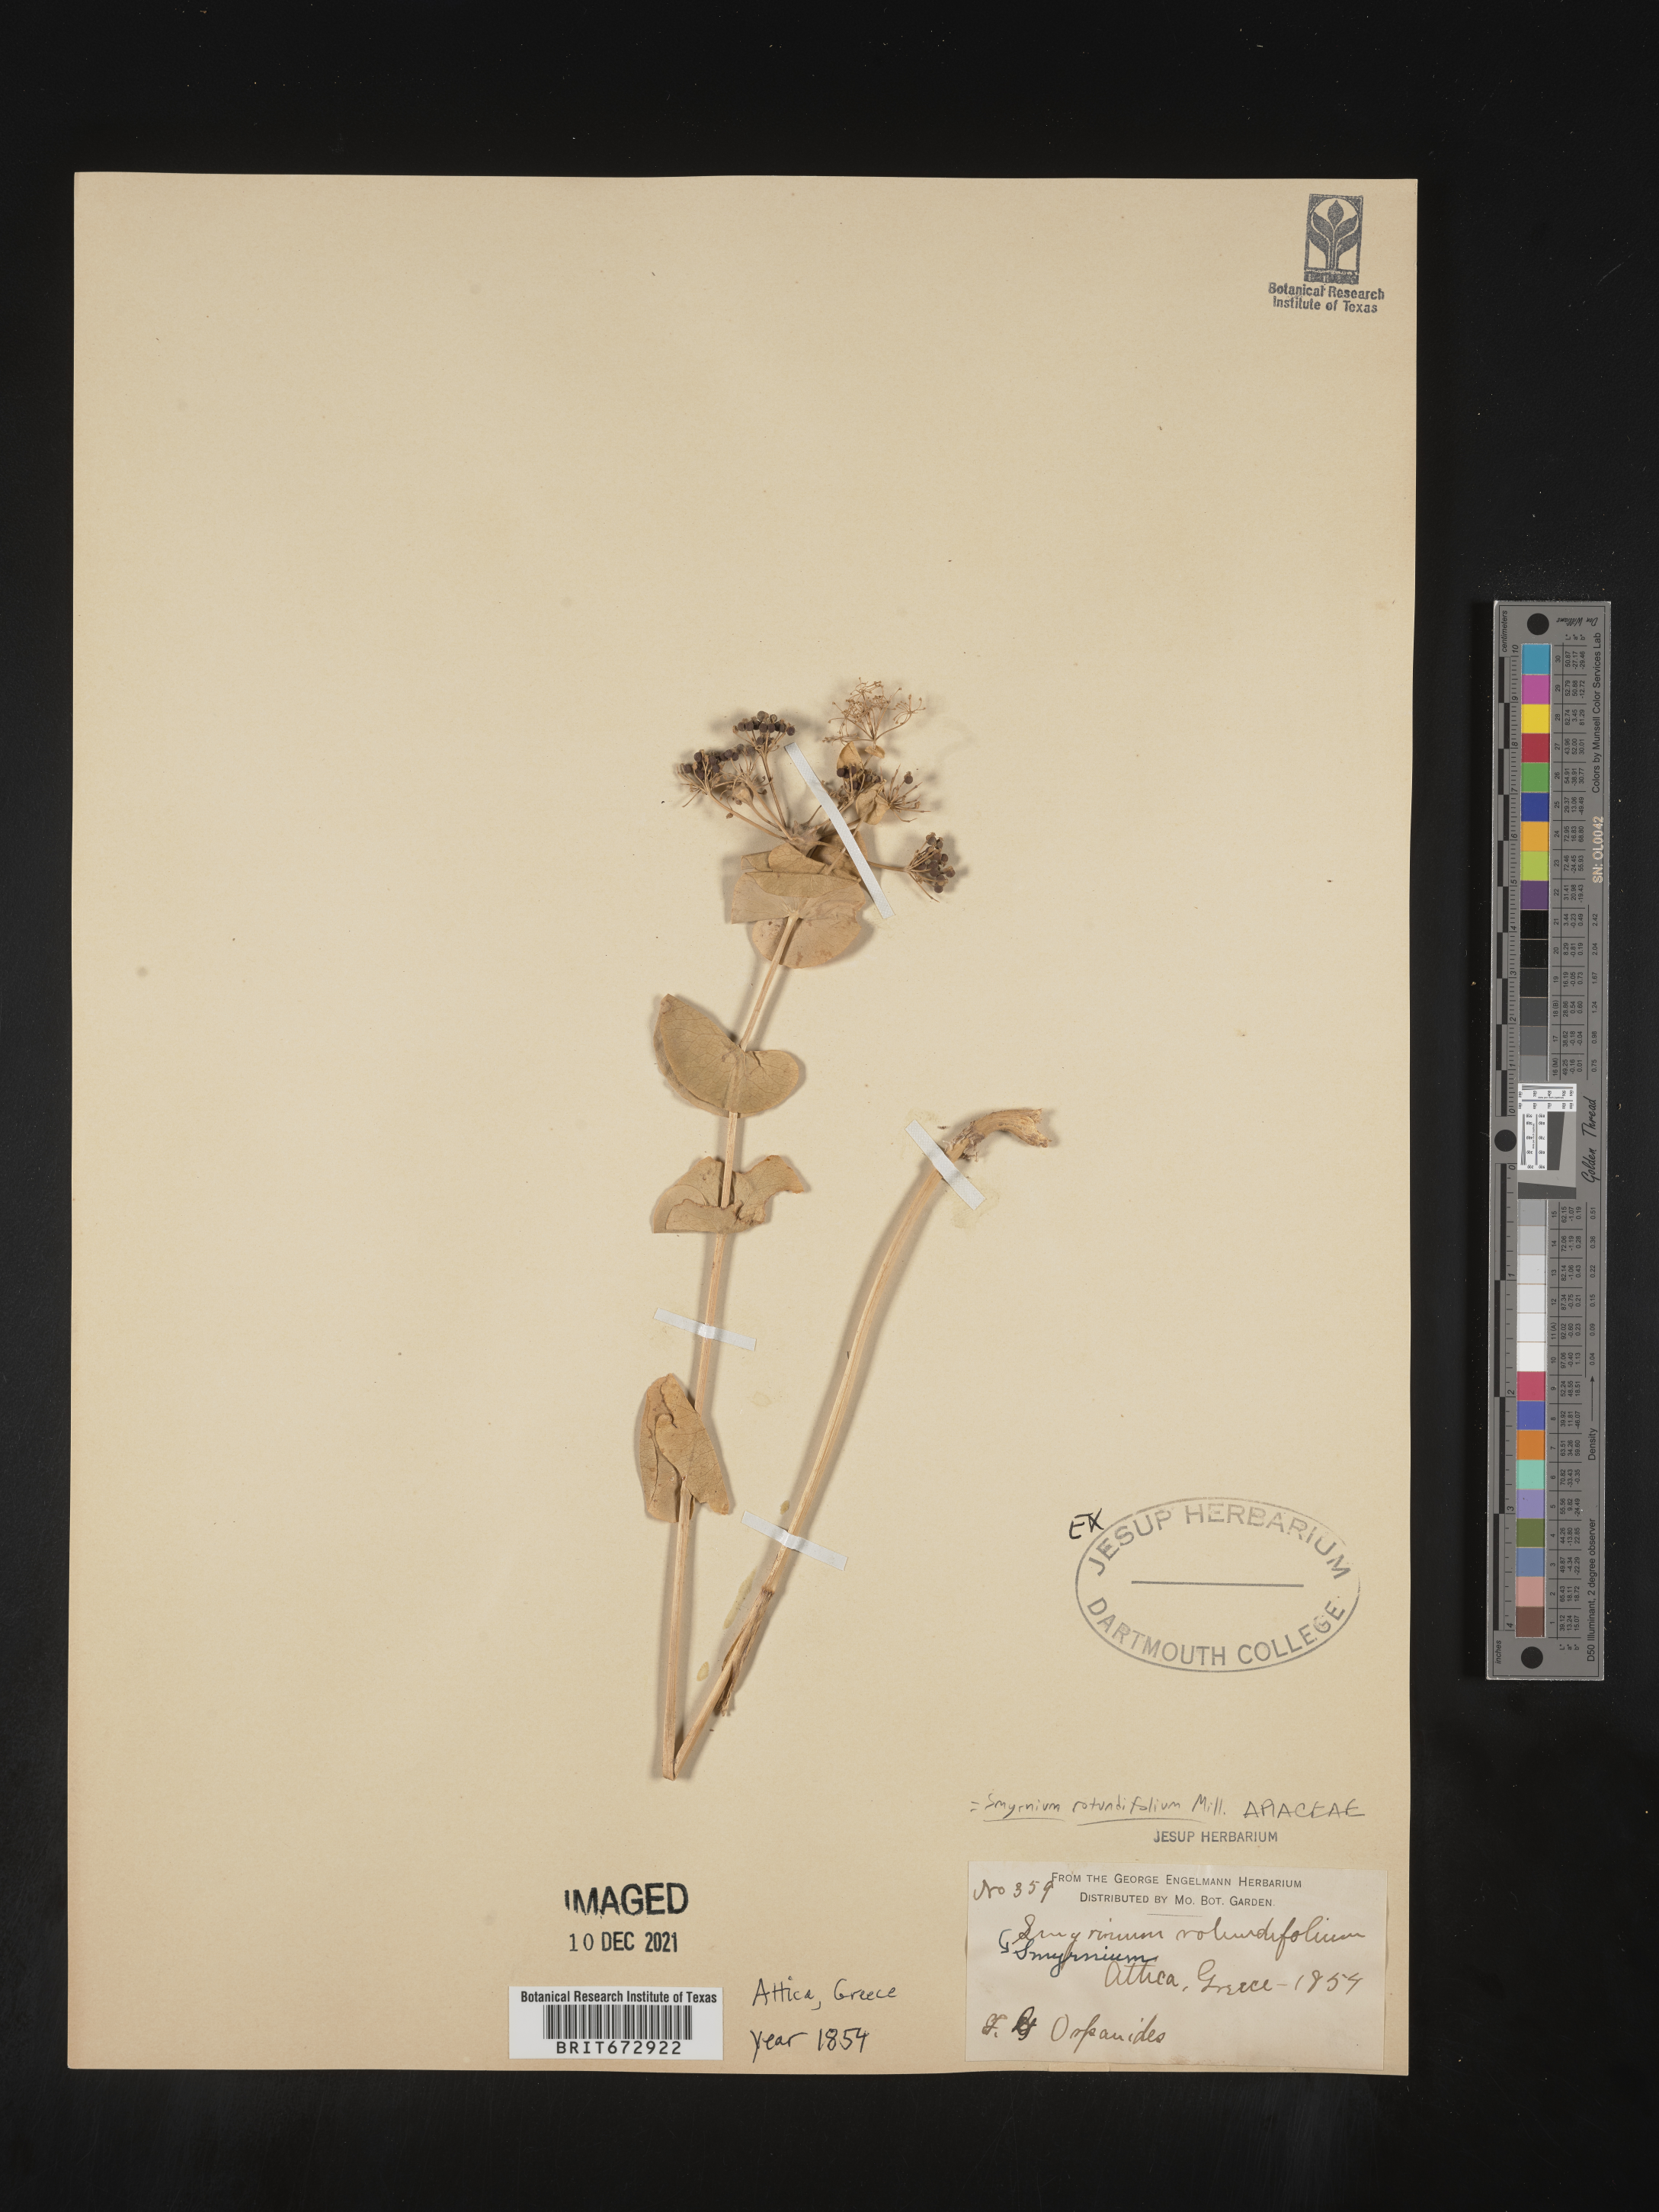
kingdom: Plantae
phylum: Tracheophyta
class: Magnoliopsida
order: Apiales
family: Apiaceae
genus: Smyrnium
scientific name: Smyrnium
